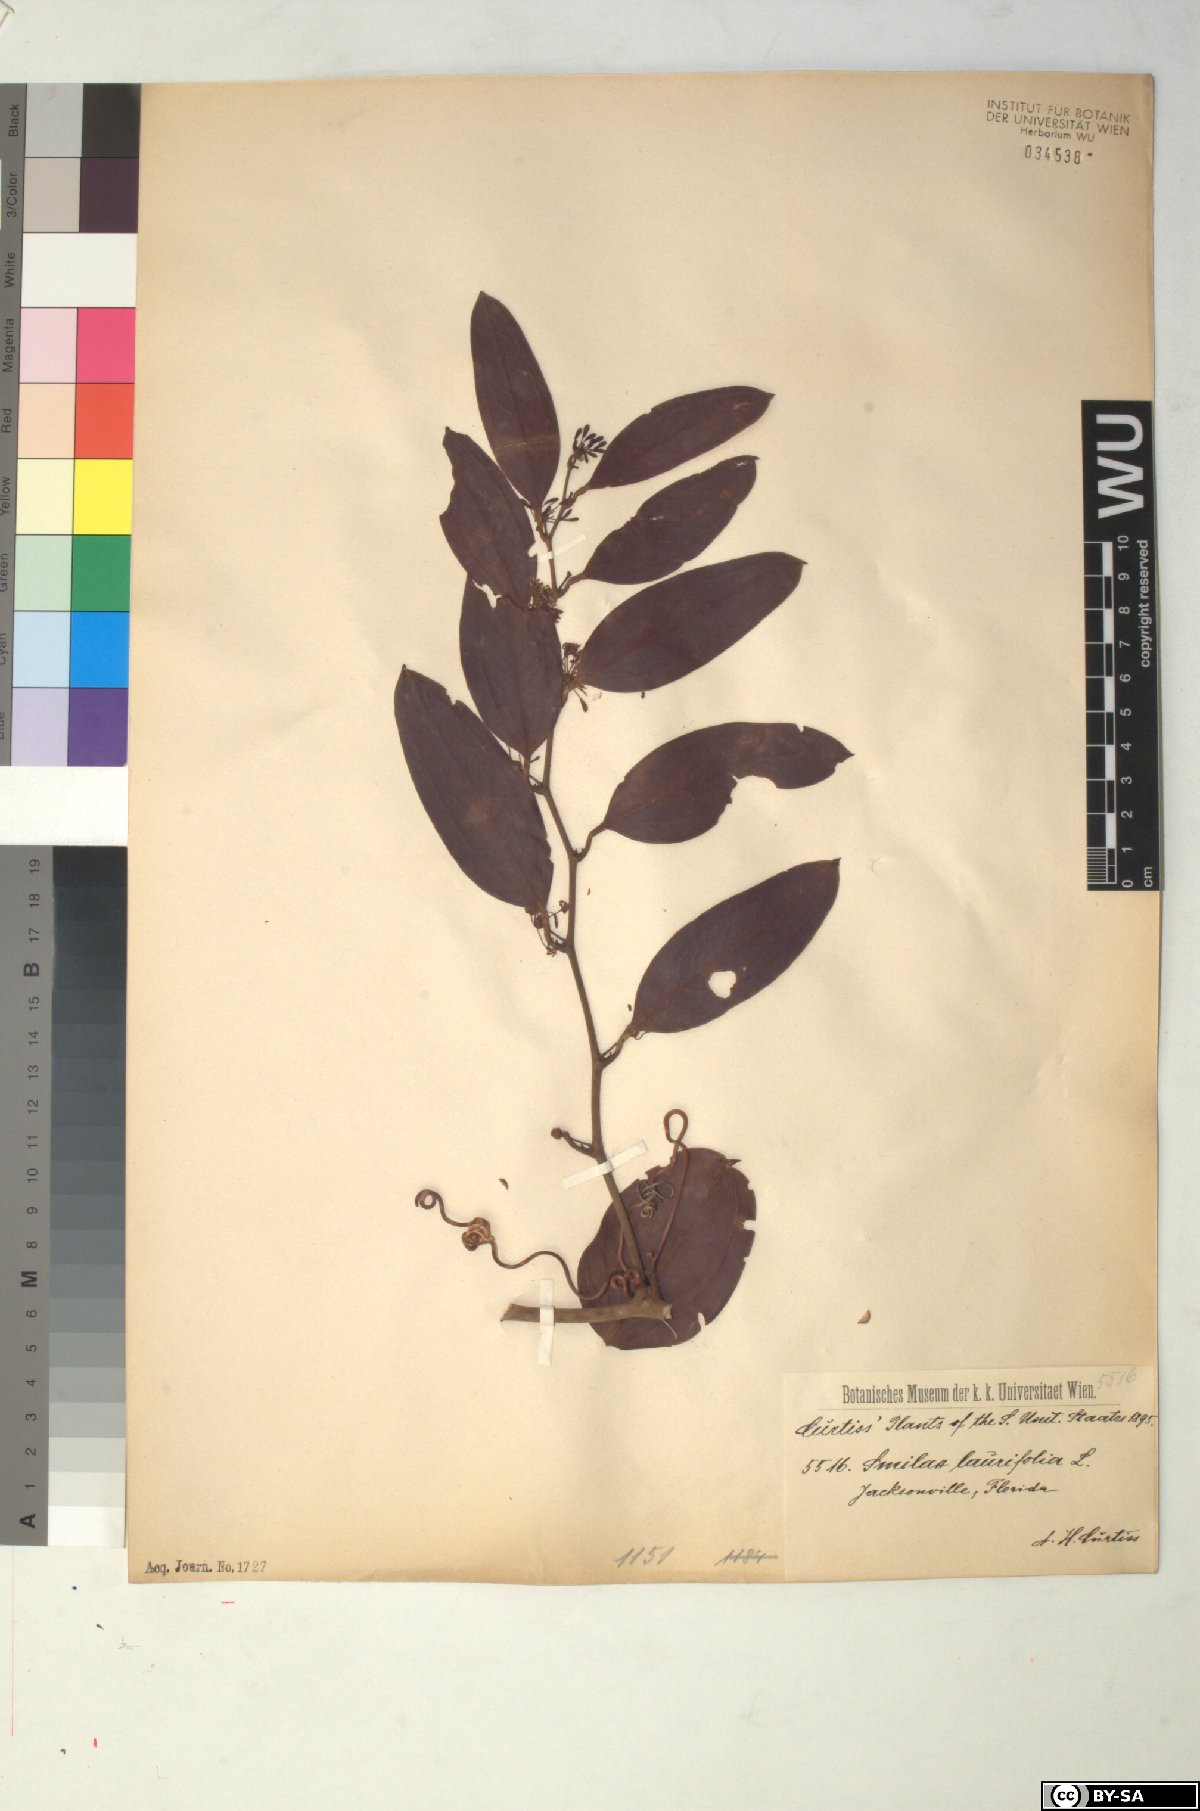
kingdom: Plantae
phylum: Tracheophyta
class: Liliopsida
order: Liliales
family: Smilacaceae
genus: Smilax
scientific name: Smilax laurifolia
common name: Bamboovine
